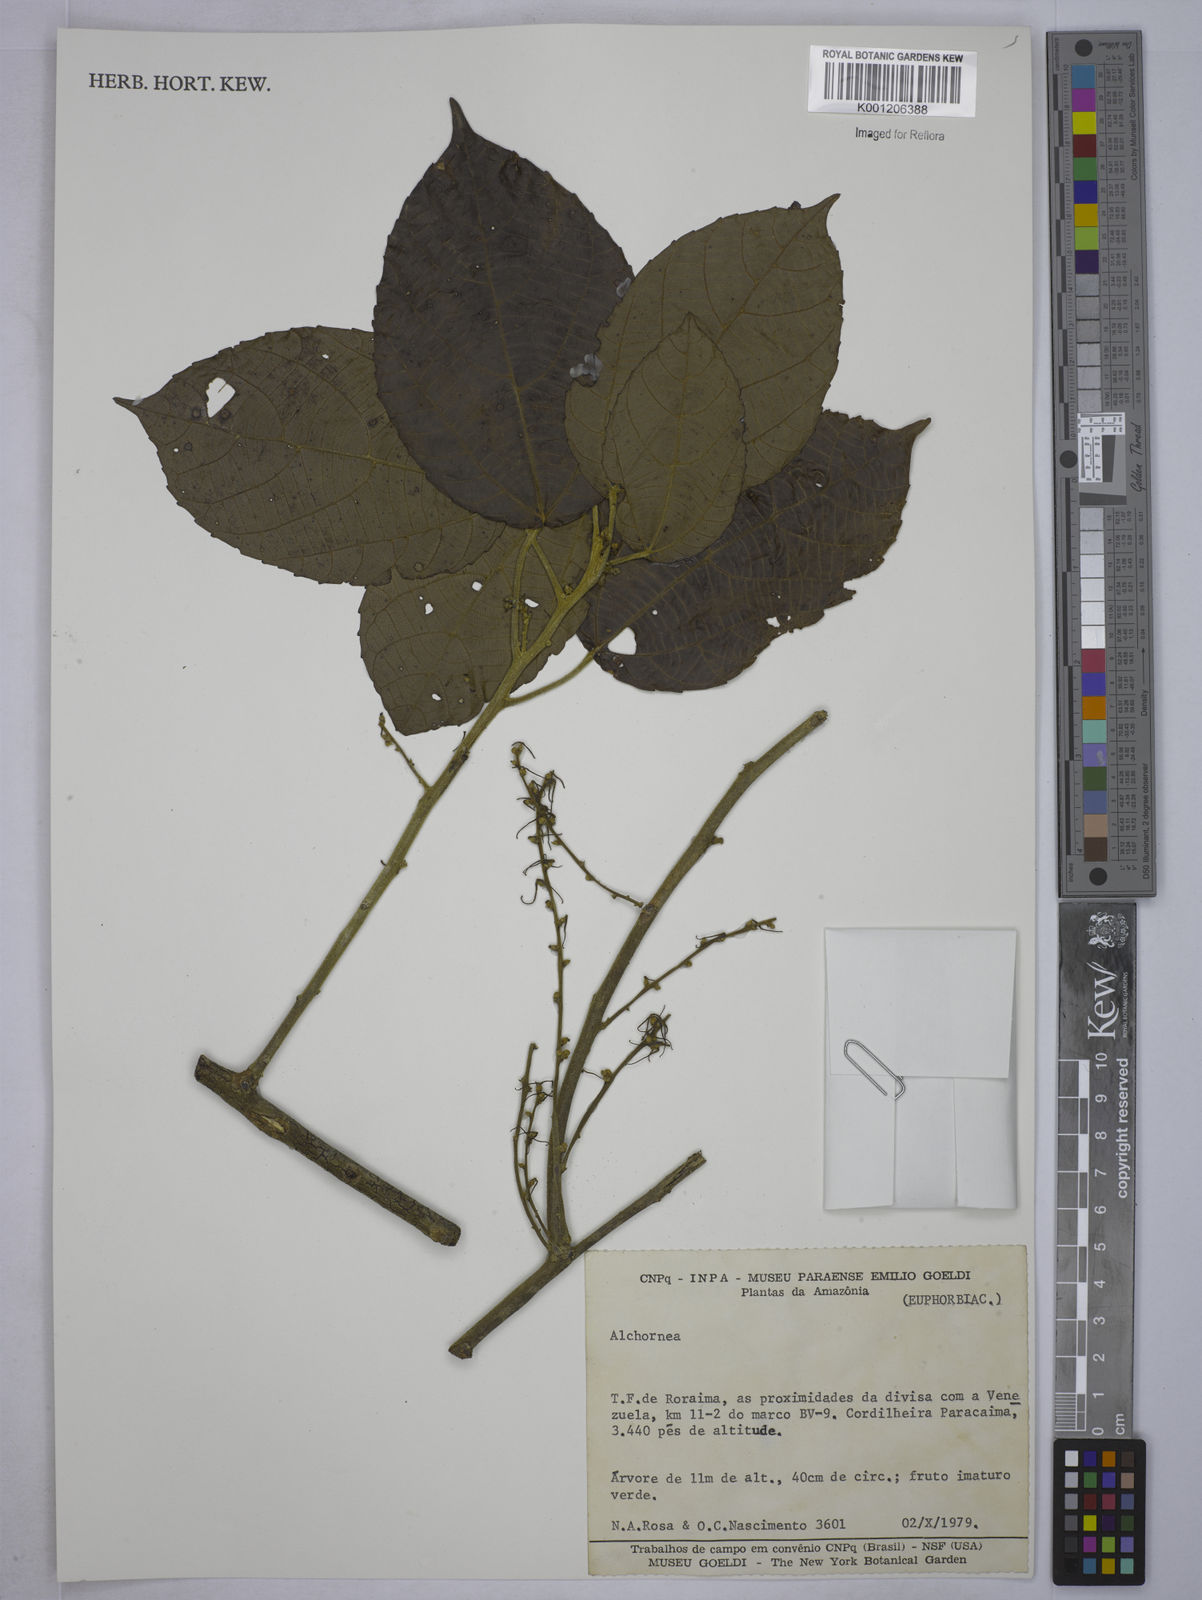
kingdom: Plantae
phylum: Tracheophyta
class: Magnoliopsida
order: Malpighiales
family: Euphorbiaceae
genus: Alchornea
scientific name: Alchornea
